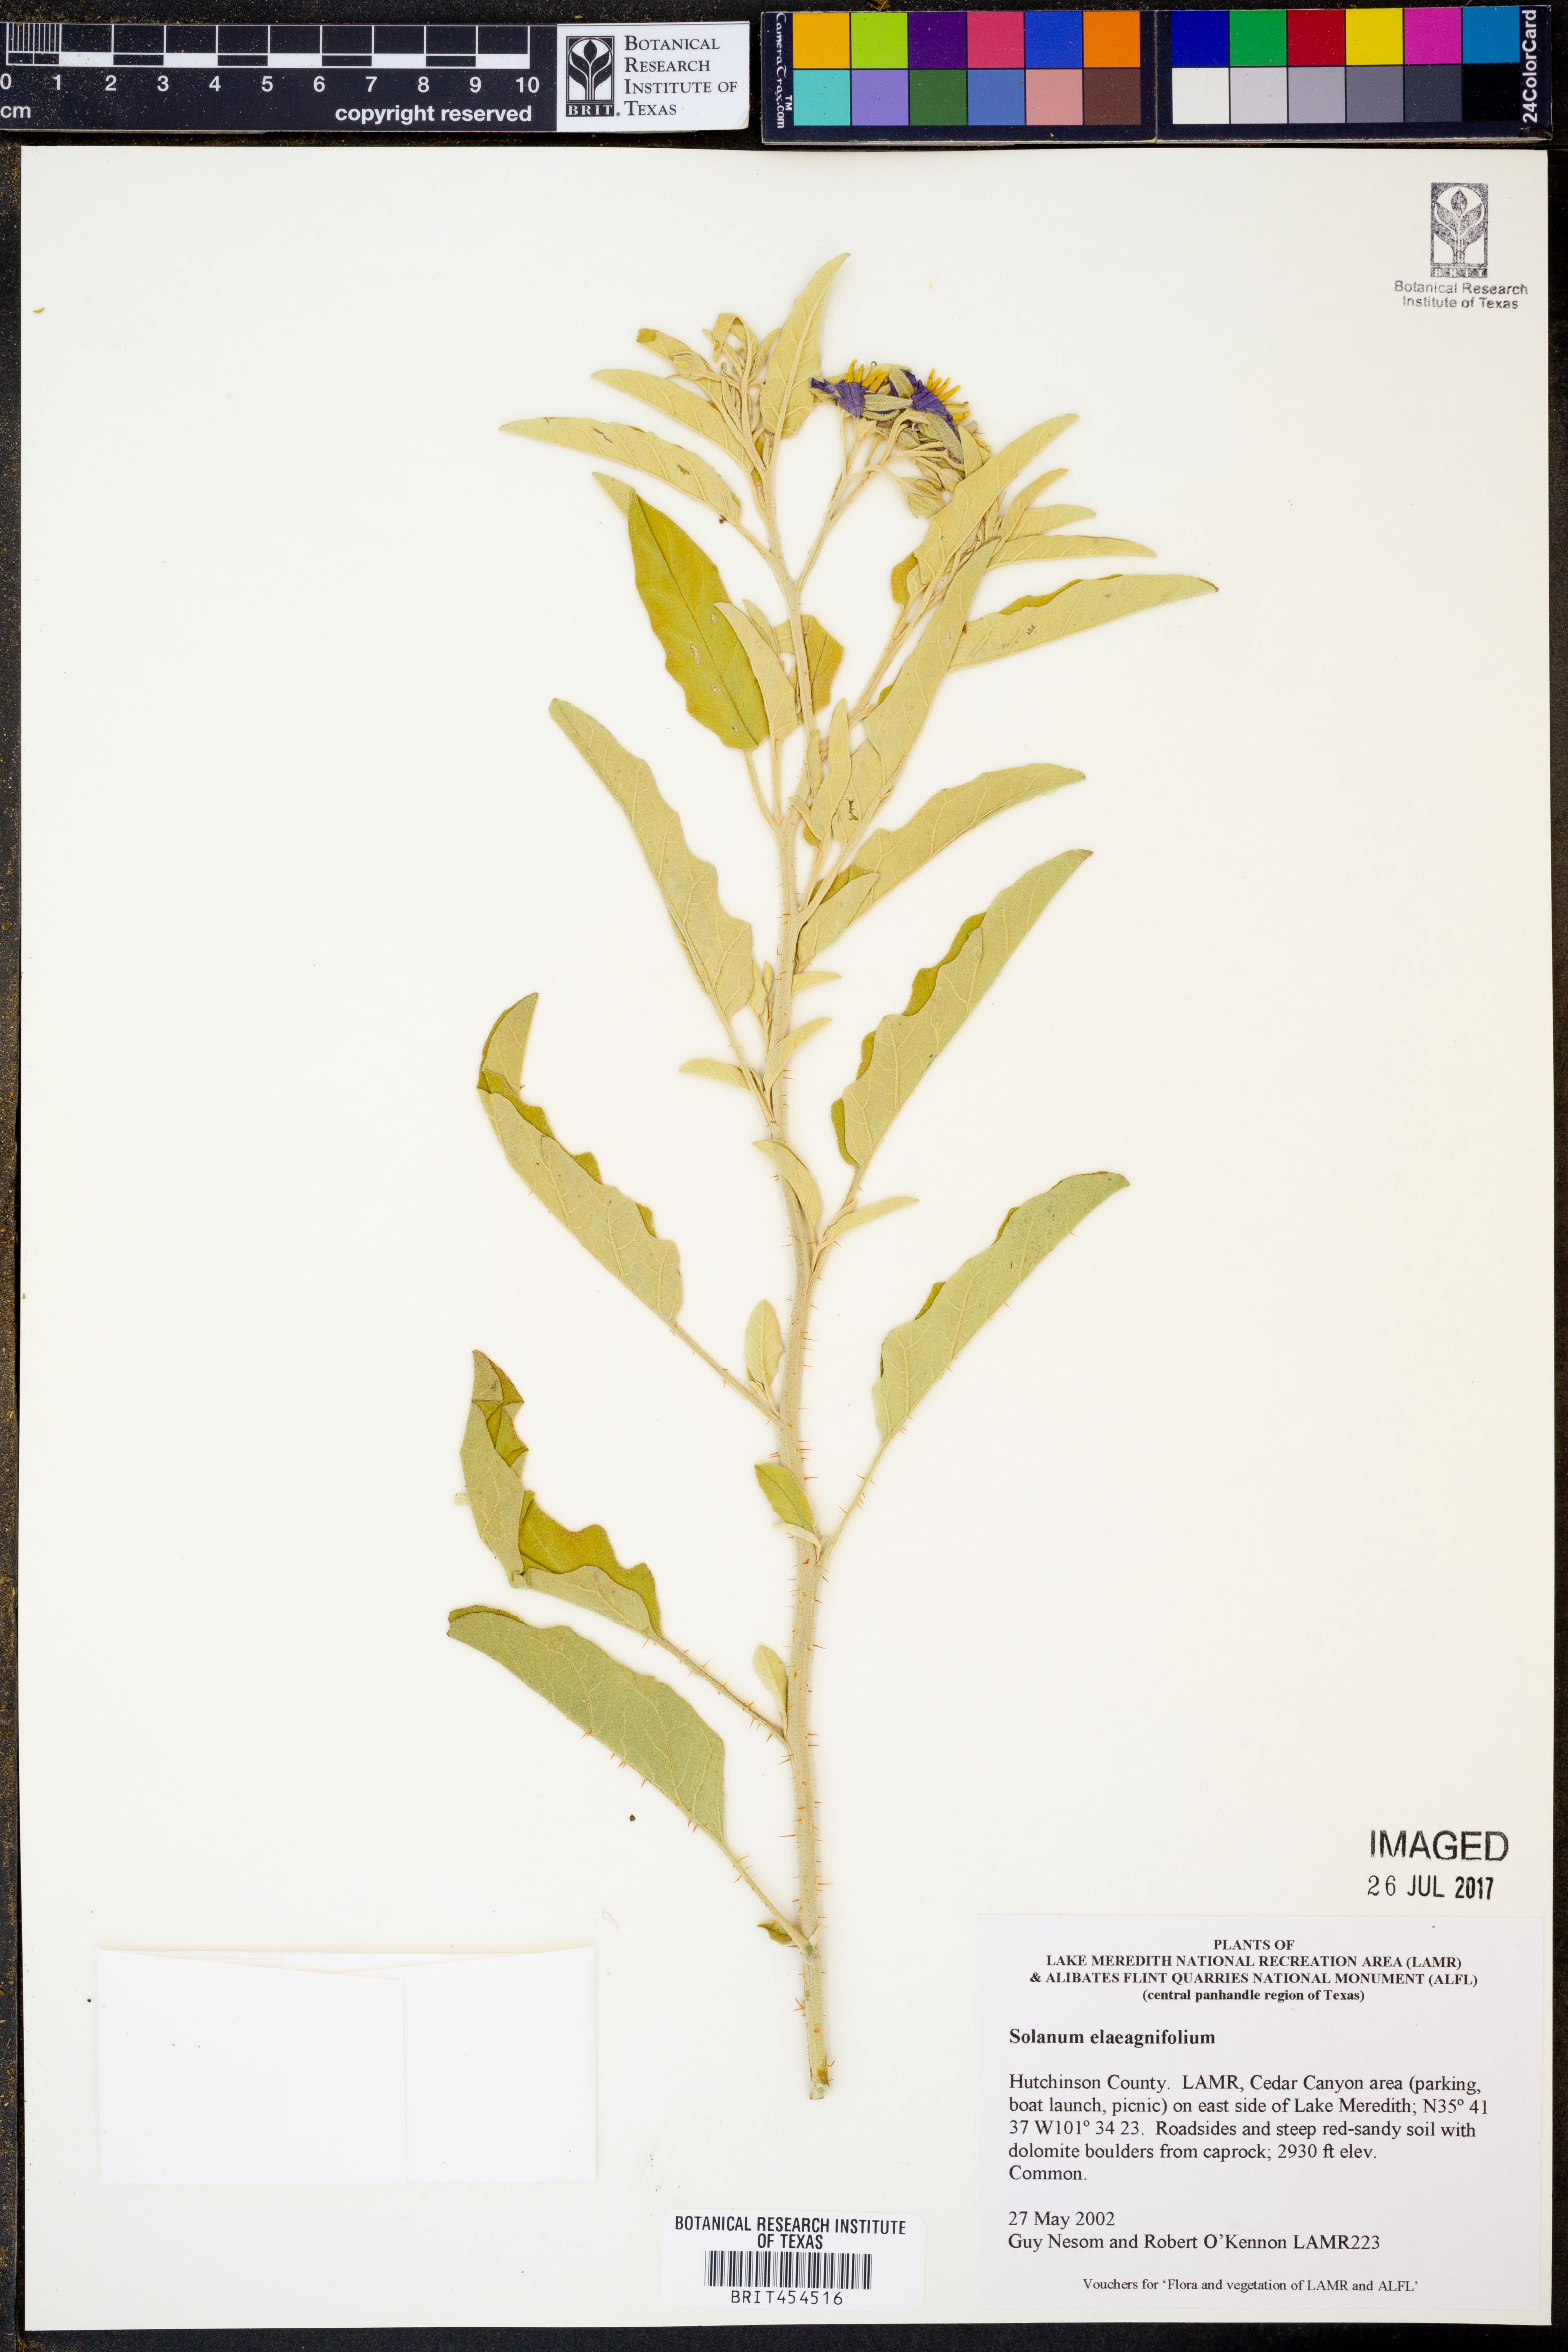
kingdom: Plantae
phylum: Tracheophyta
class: Magnoliopsida
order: Solanales
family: Solanaceae
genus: Solanum
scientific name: Solanum elaeagnifolium
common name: Silverleaf nightshade
